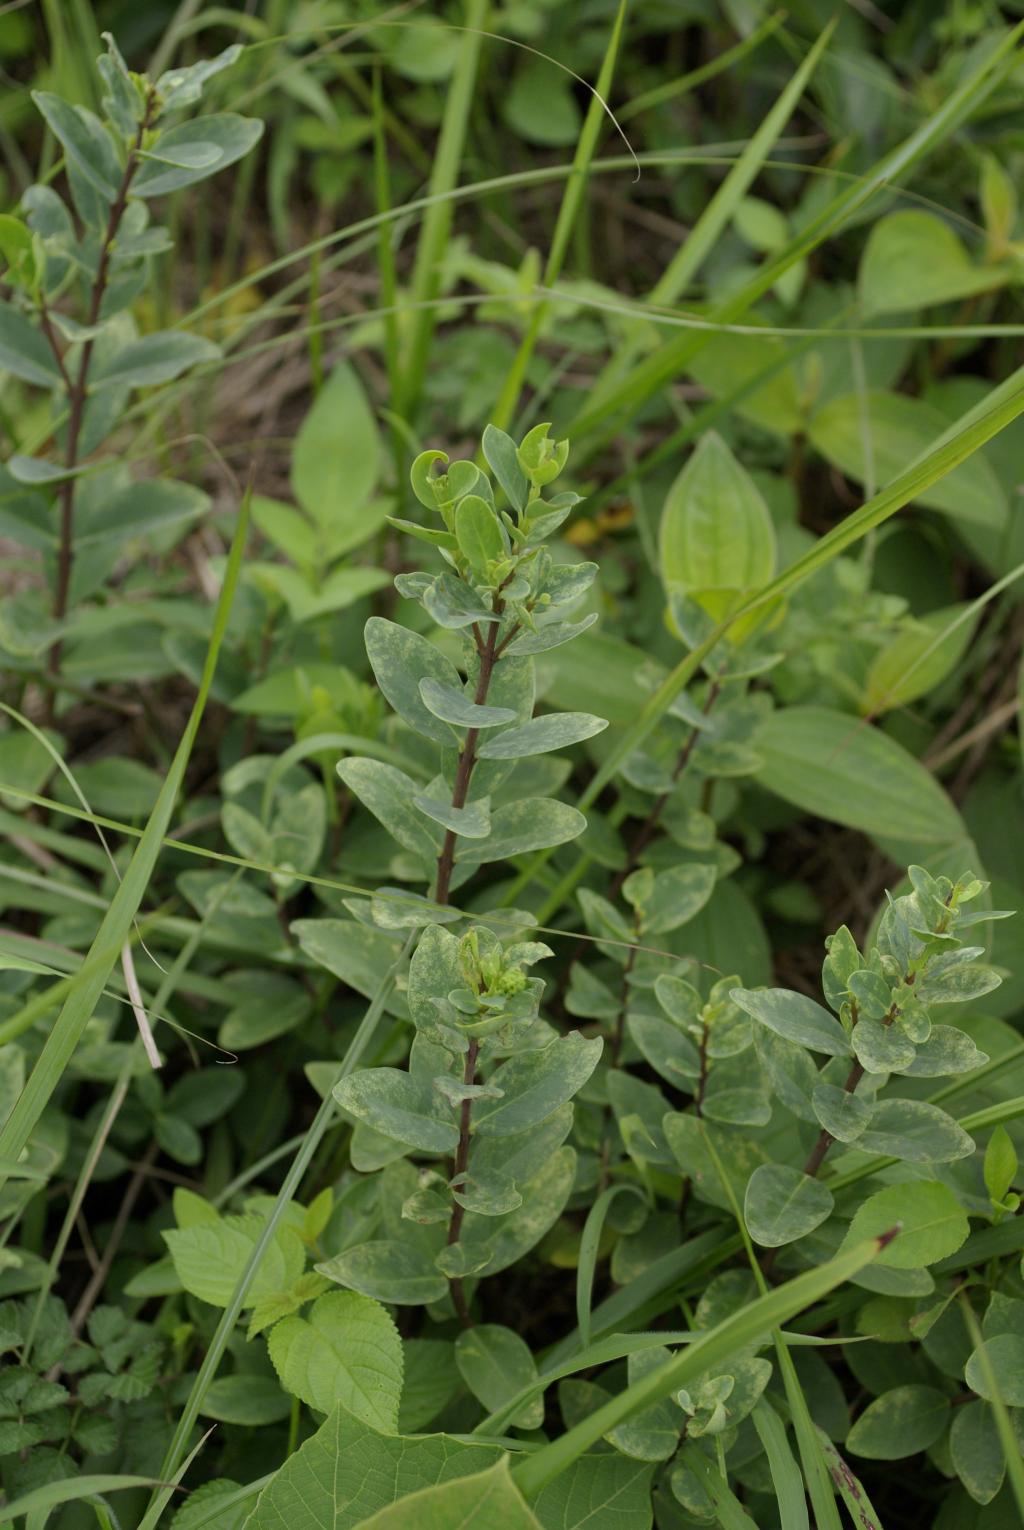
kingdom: Plantae
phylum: Tracheophyta
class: Magnoliopsida
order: Malvales
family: Thymelaeaceae
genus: Wikstroemia
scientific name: Wikstroemia indica
